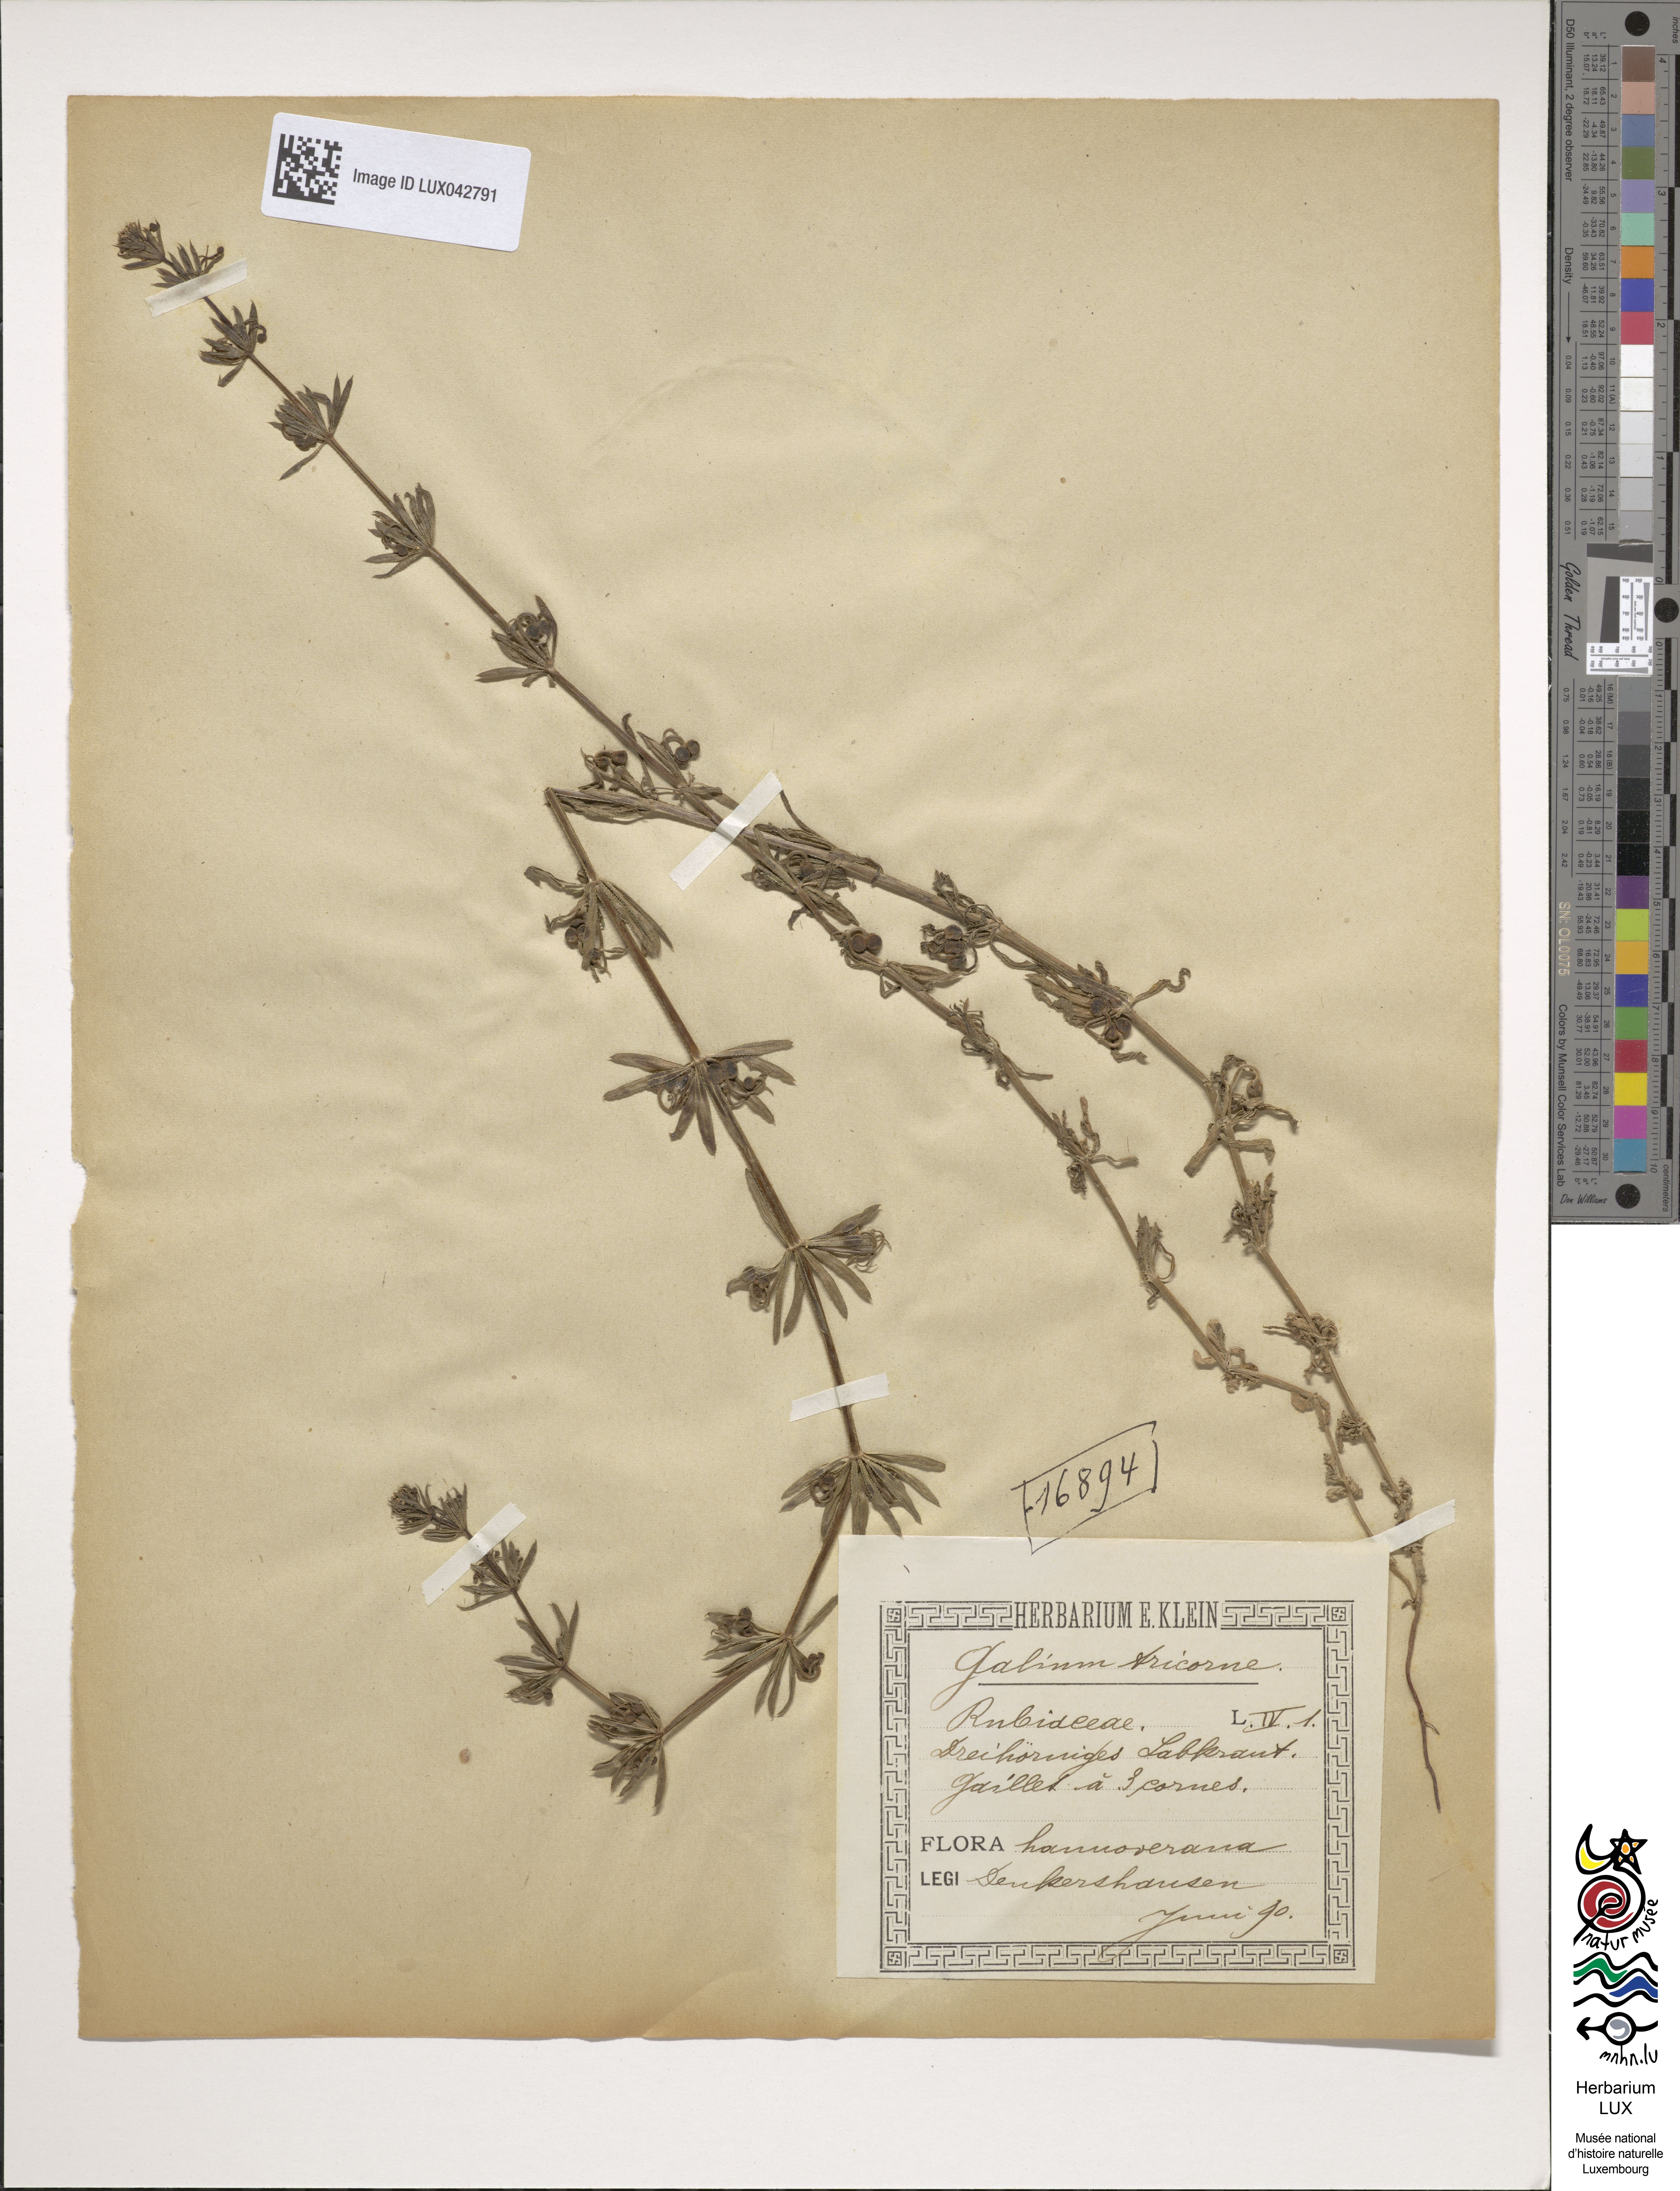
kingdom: Plantae
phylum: Tracheophyta
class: Magnoliopsida
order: Gentianales
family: Rubiaceae
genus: Galium
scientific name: Galium tricornutum
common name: Corn cleavers
